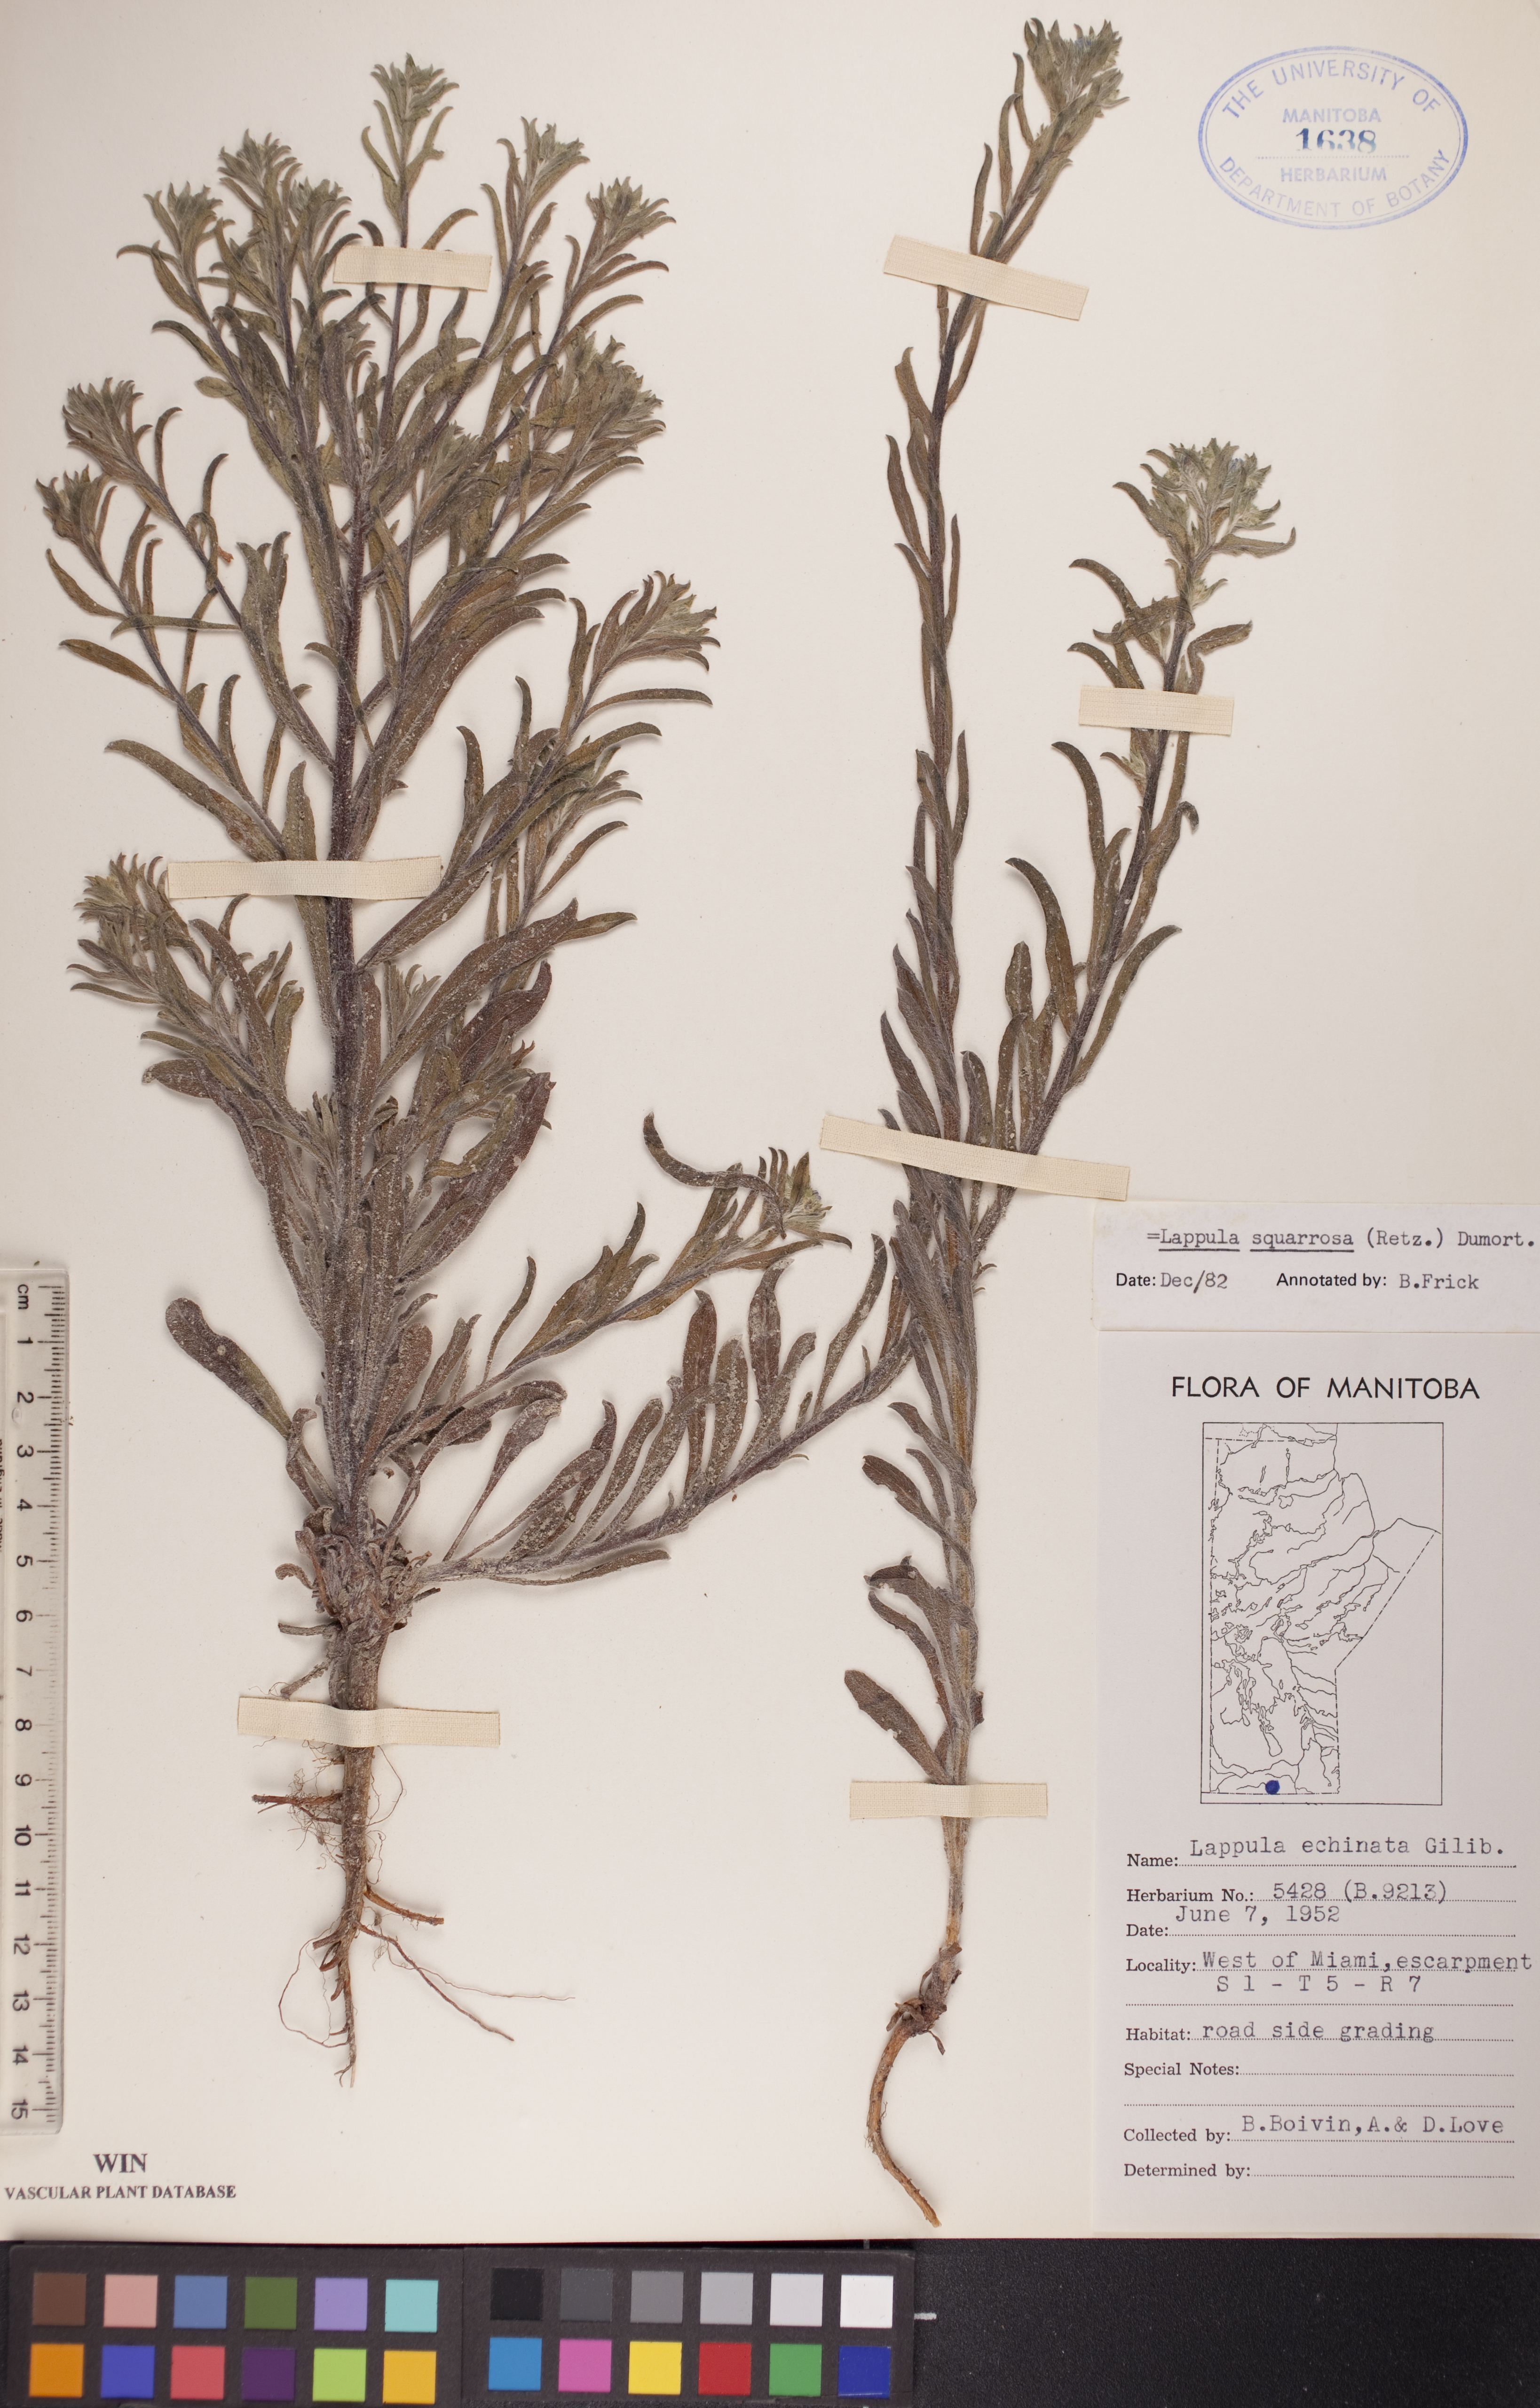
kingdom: Plantae
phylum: Tracheophyta
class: Magnoliopsida
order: Boraginales
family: Boraginaceae
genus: Lappula
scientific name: Lappula squarrosa
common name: European stickseed
